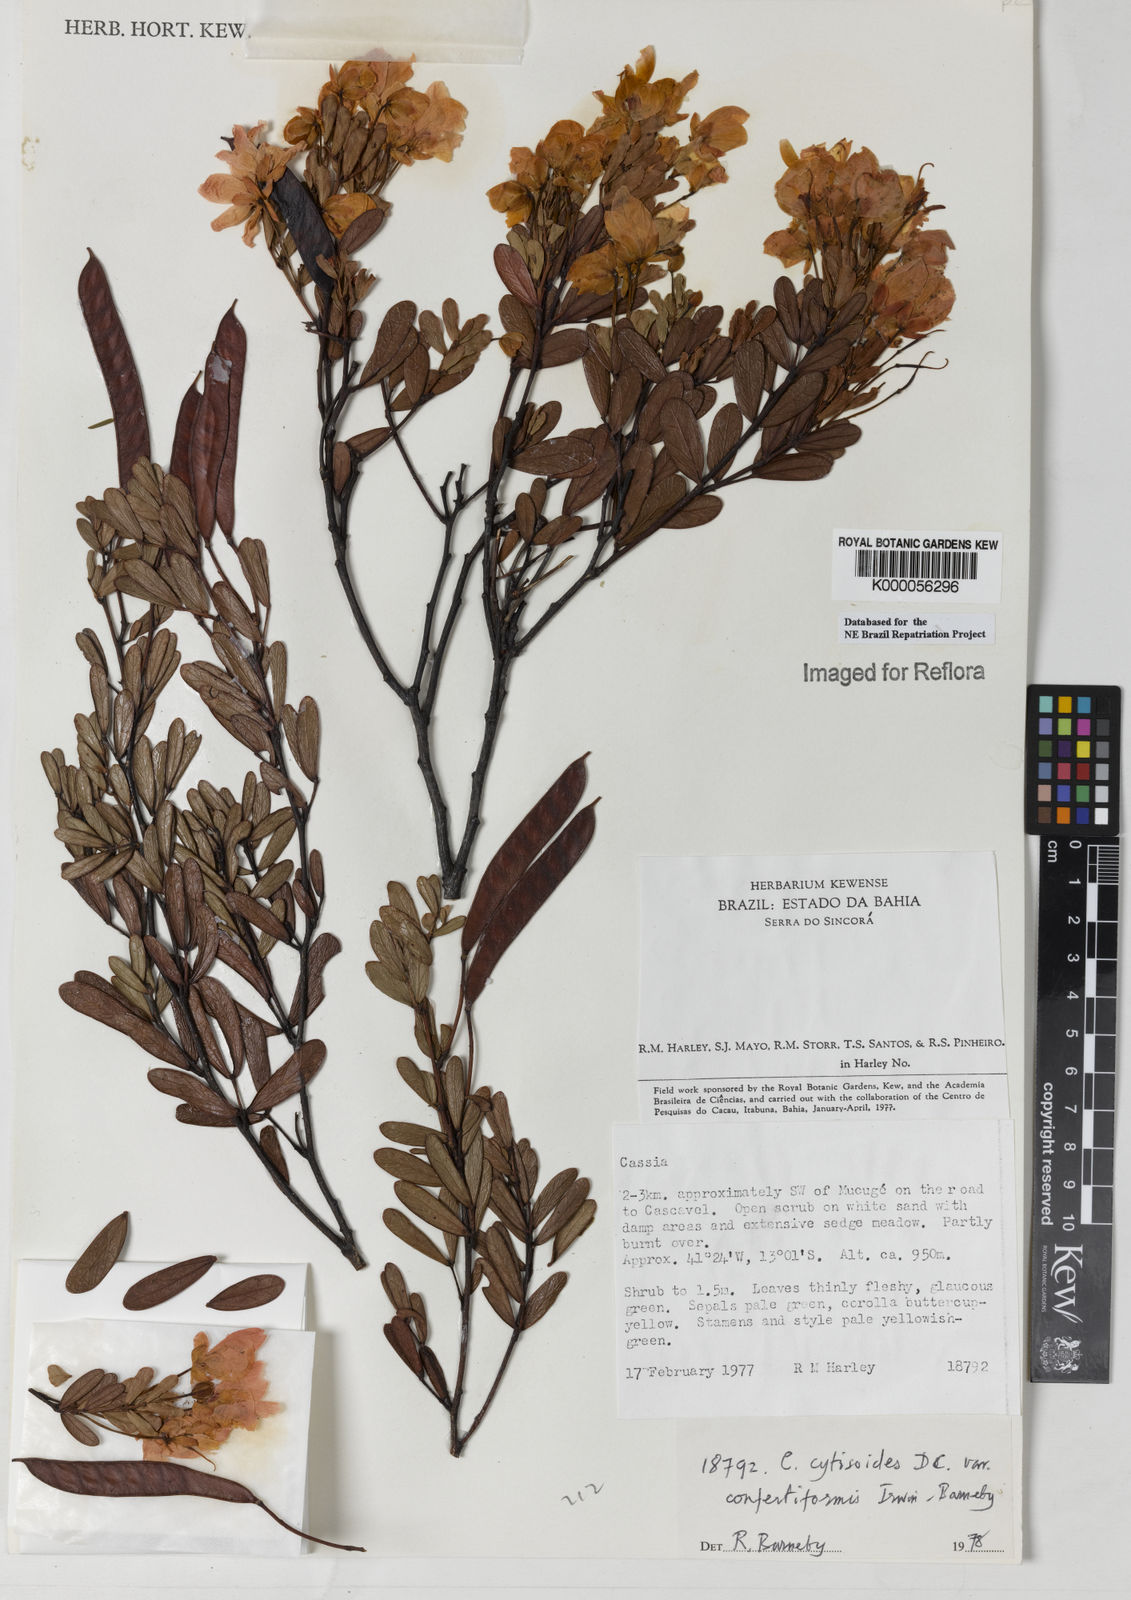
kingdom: Plantae
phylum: Tracheophyta
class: Magnoliopsida
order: Fabales
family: Fabaceae
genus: Chamaecrista
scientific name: Chamaecrista confertiformis
